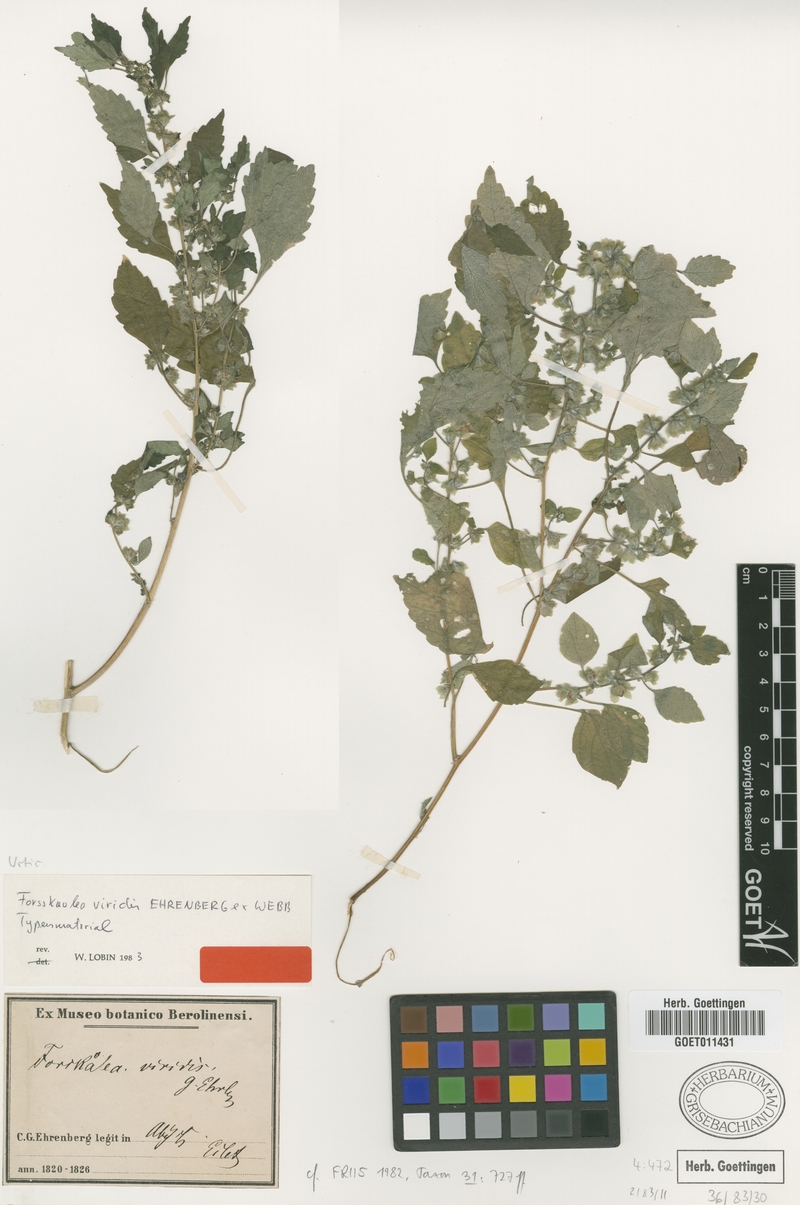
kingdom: Plantae
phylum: Tracheophyta
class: Magnoliopsida
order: Rosales
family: Urticaceae
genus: Forsskaolea
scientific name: Forsskaolea viridis
